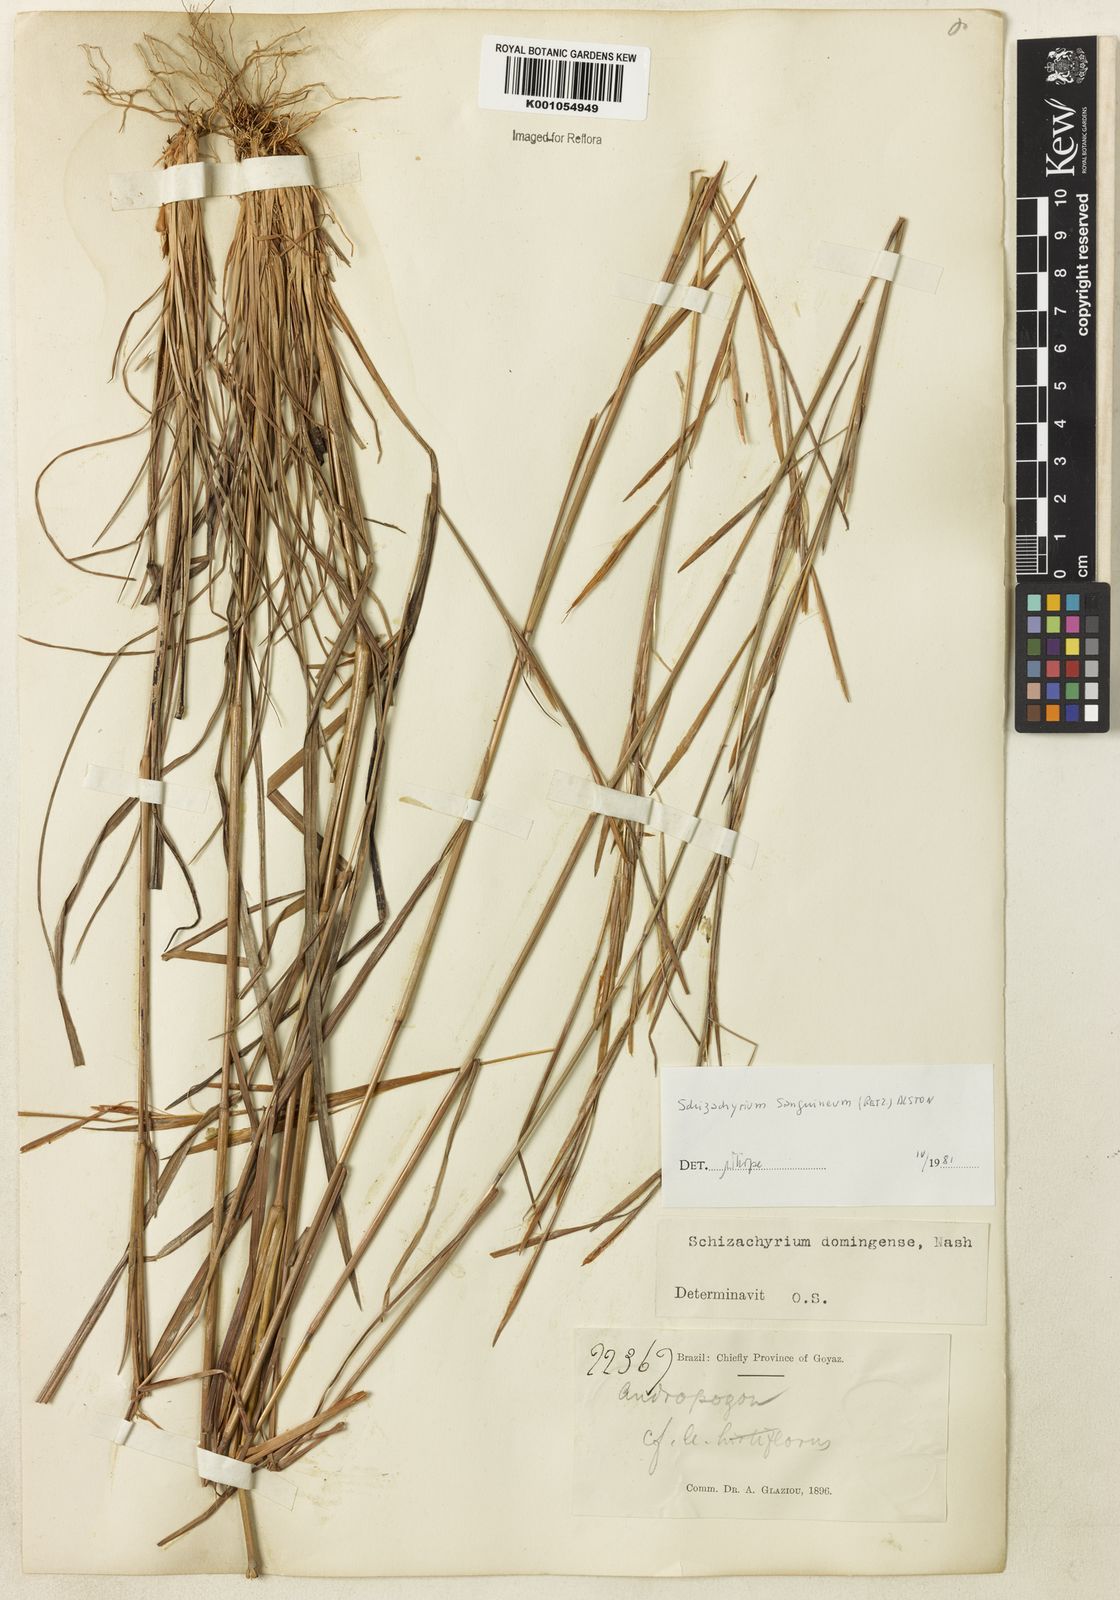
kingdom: Plantae
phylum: Tracheophyta
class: Liliopsida
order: Poales
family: Poaceae
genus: Schizachyrium
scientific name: Schizachyrium sanguineum
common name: Crimson bluestem
